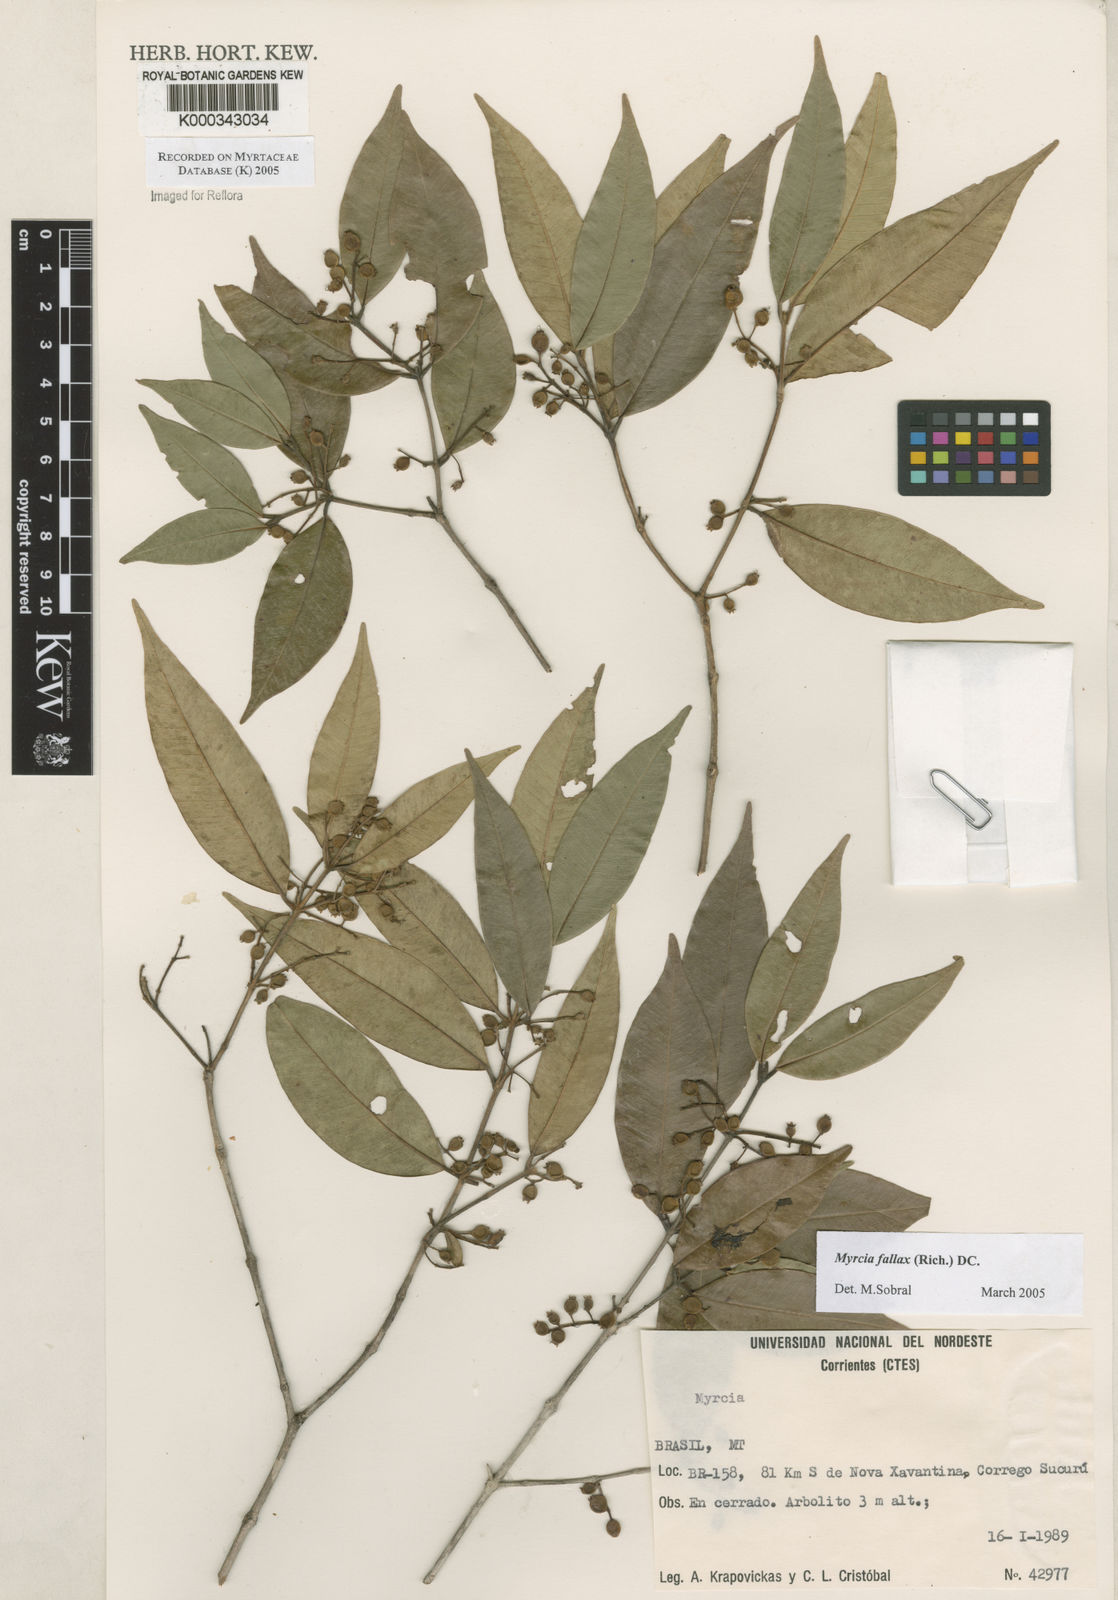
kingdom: Plantae
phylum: Tracheophyta
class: Magnoliopsida
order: Myrtales
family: Myrtaceae
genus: Myrcia
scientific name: Myrcia splendens
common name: Surinam cherry
